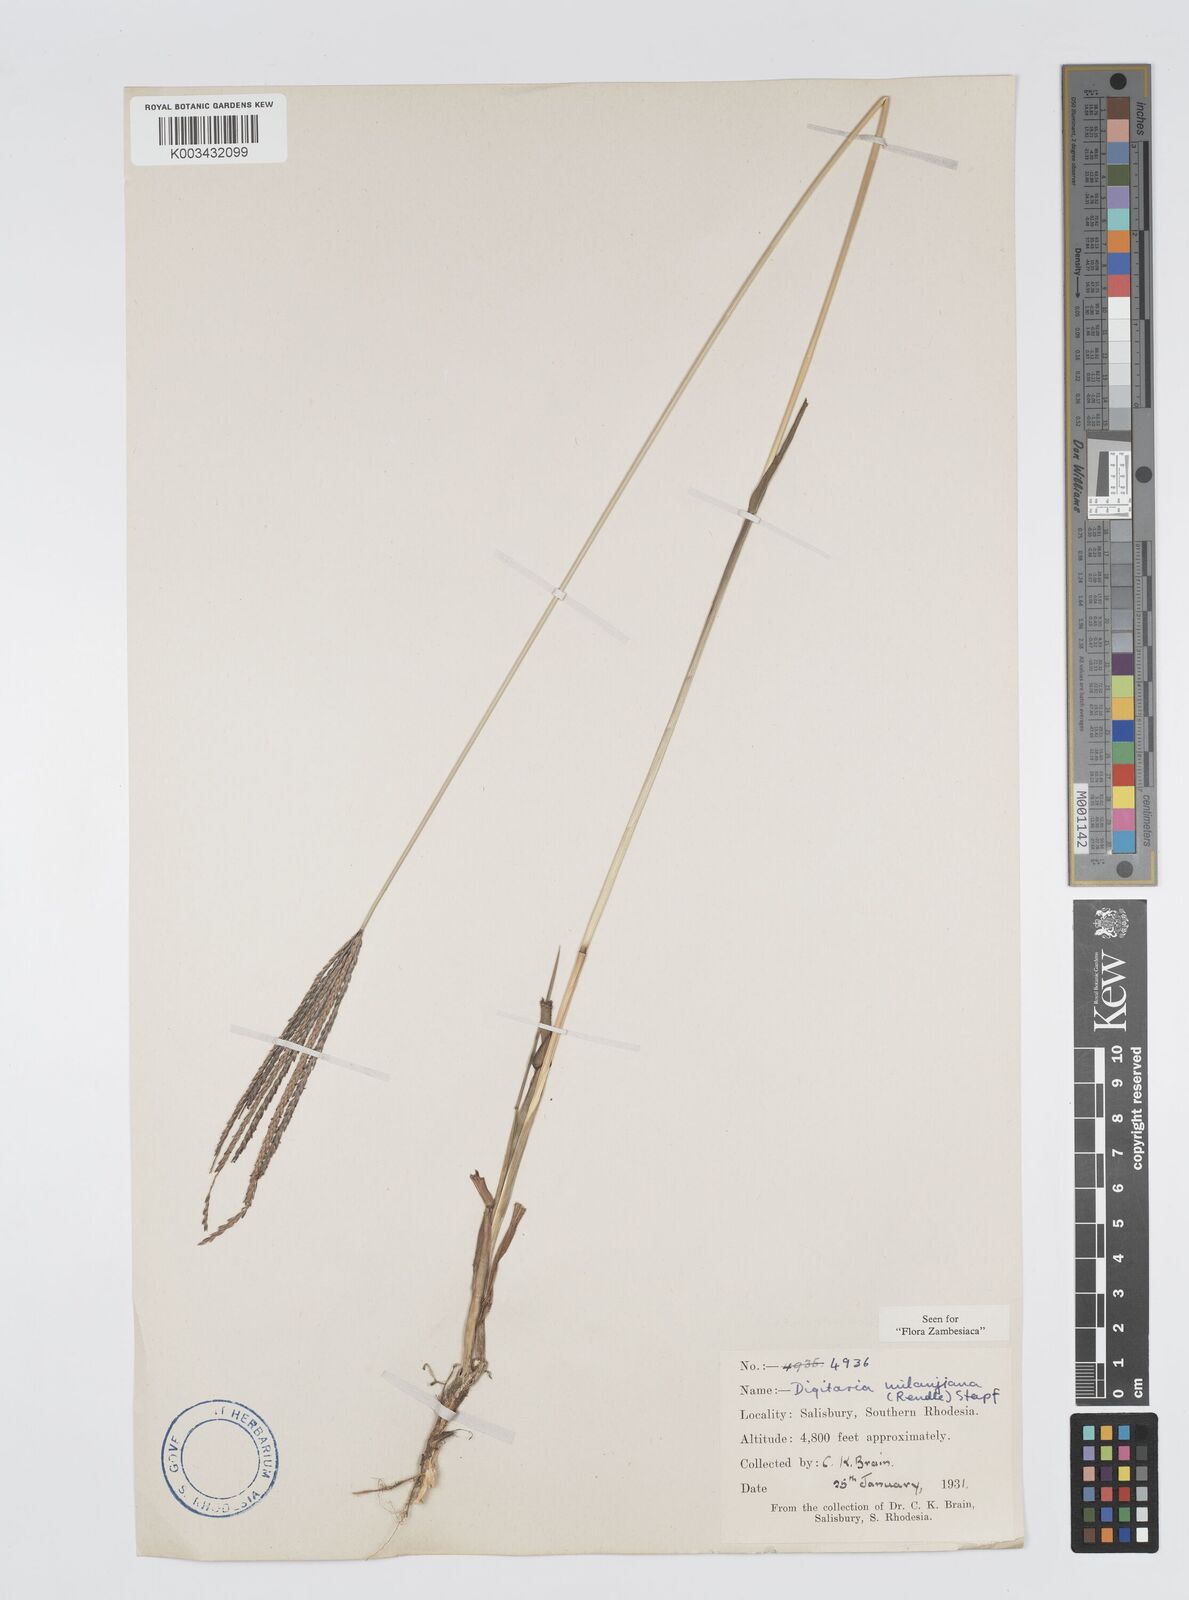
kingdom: Plantae
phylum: Tracheophyta
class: Liliopsida
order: Poales
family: Poaceae
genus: Digitaria
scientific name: Digitaria milanjiana
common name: Madagascar crabgrass
